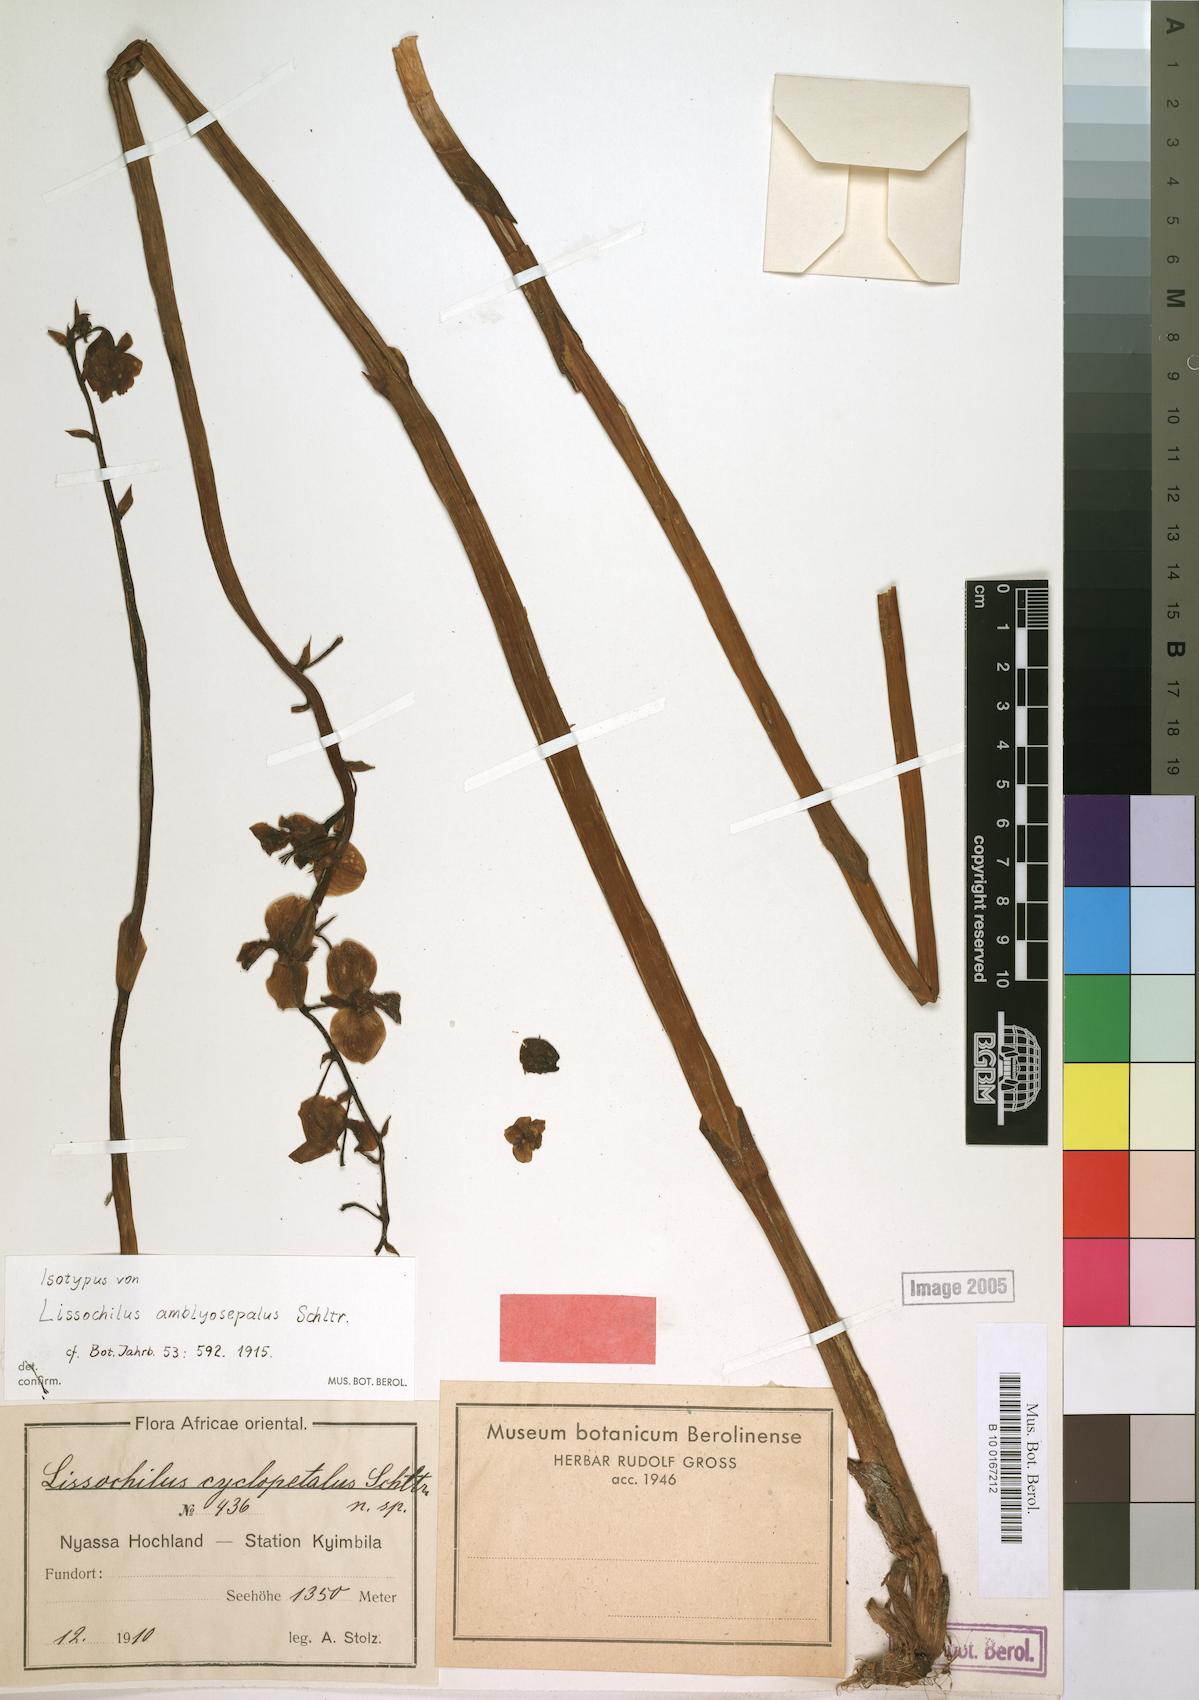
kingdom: Plantae
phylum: Tracheophyta
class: Liliopsida
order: Asparagales
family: Orchidaceae
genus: Eulophia
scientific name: Eulophia amblyosepala
